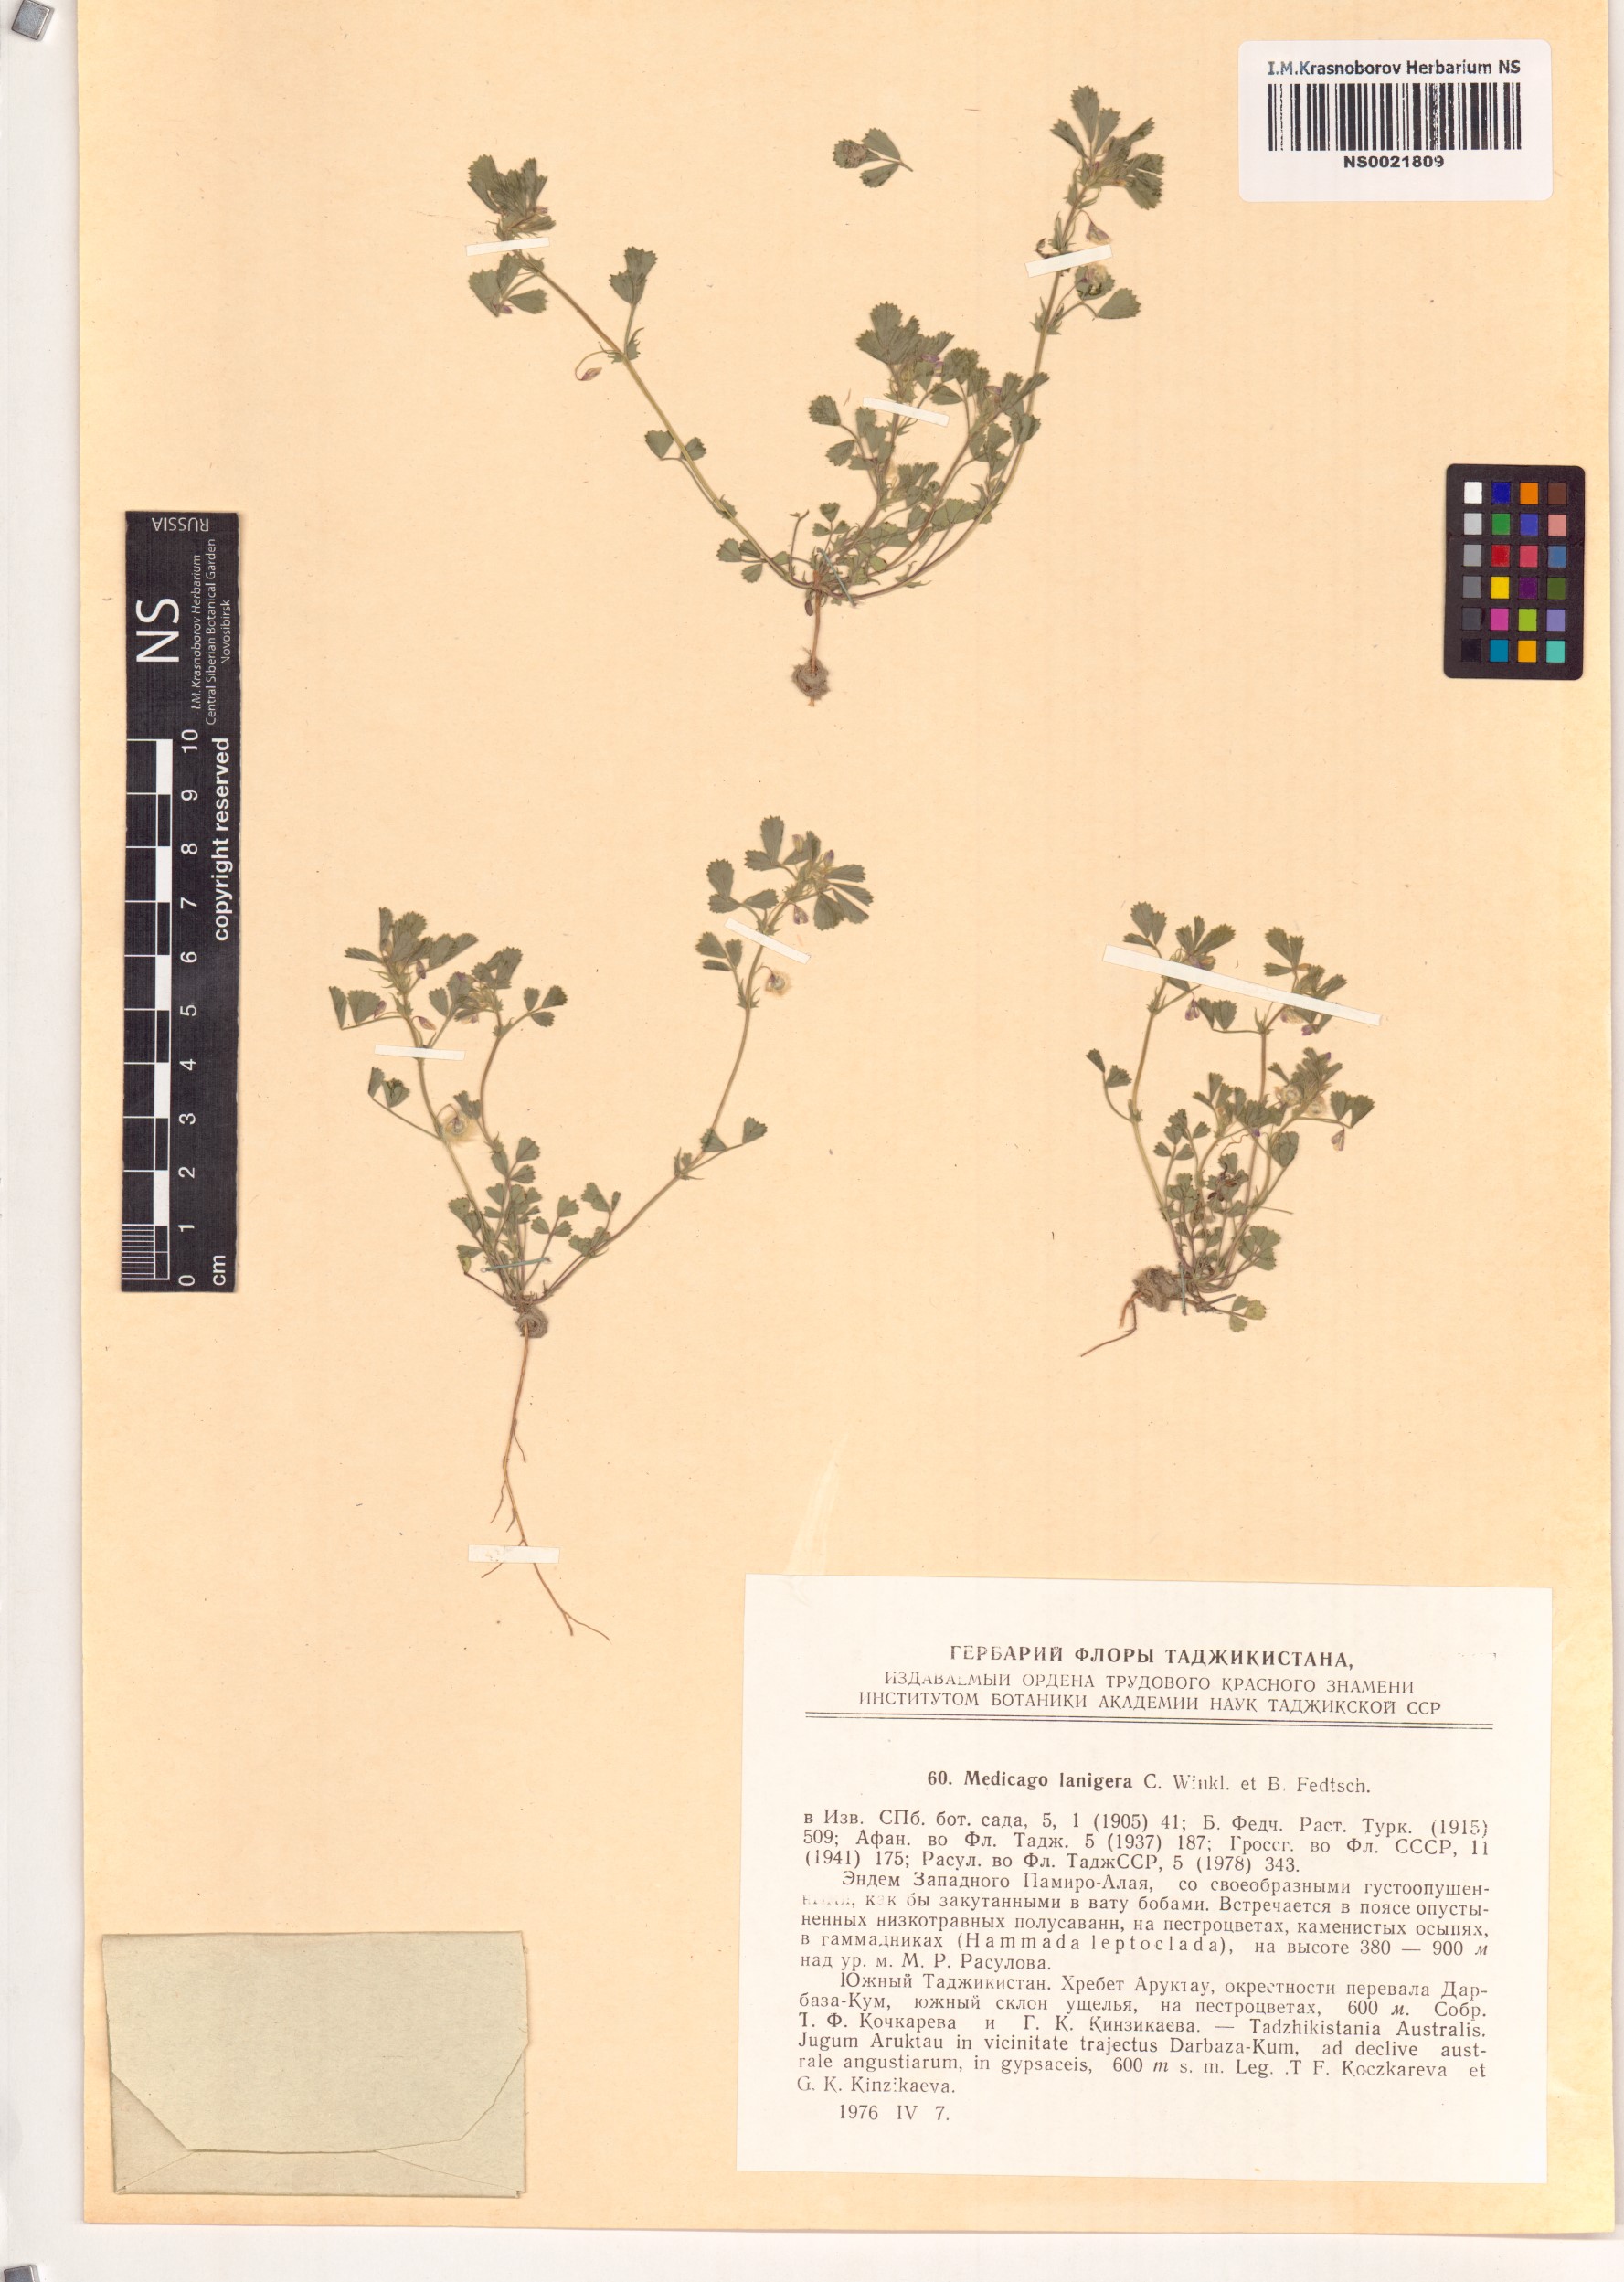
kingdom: Plantae
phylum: Tracheophyta
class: Magnoliopsida
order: Fabales
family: Fabaceae
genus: Medicago
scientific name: Medicago lanigera
